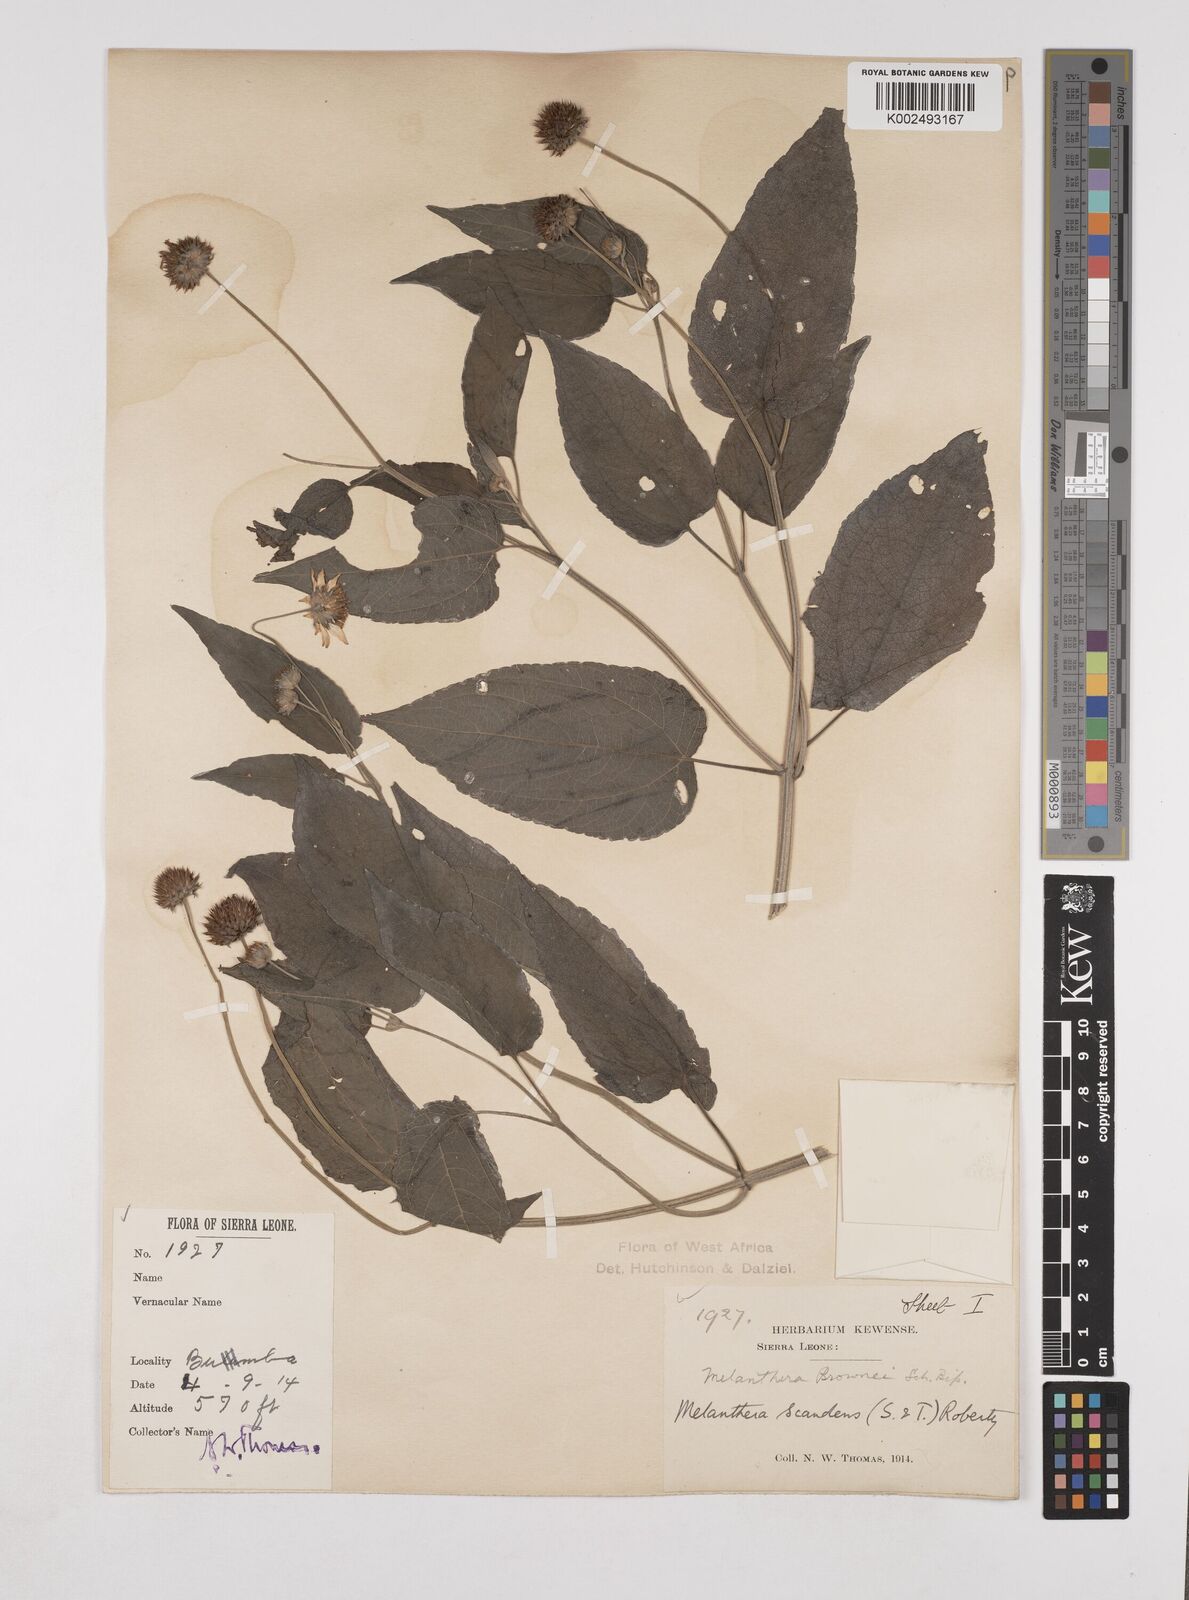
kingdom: Plantae
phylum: Tracheophyta
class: Magnoliopsida
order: Asterales
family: Asteraceae
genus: Lipotriche
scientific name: Lipotriche scandens
